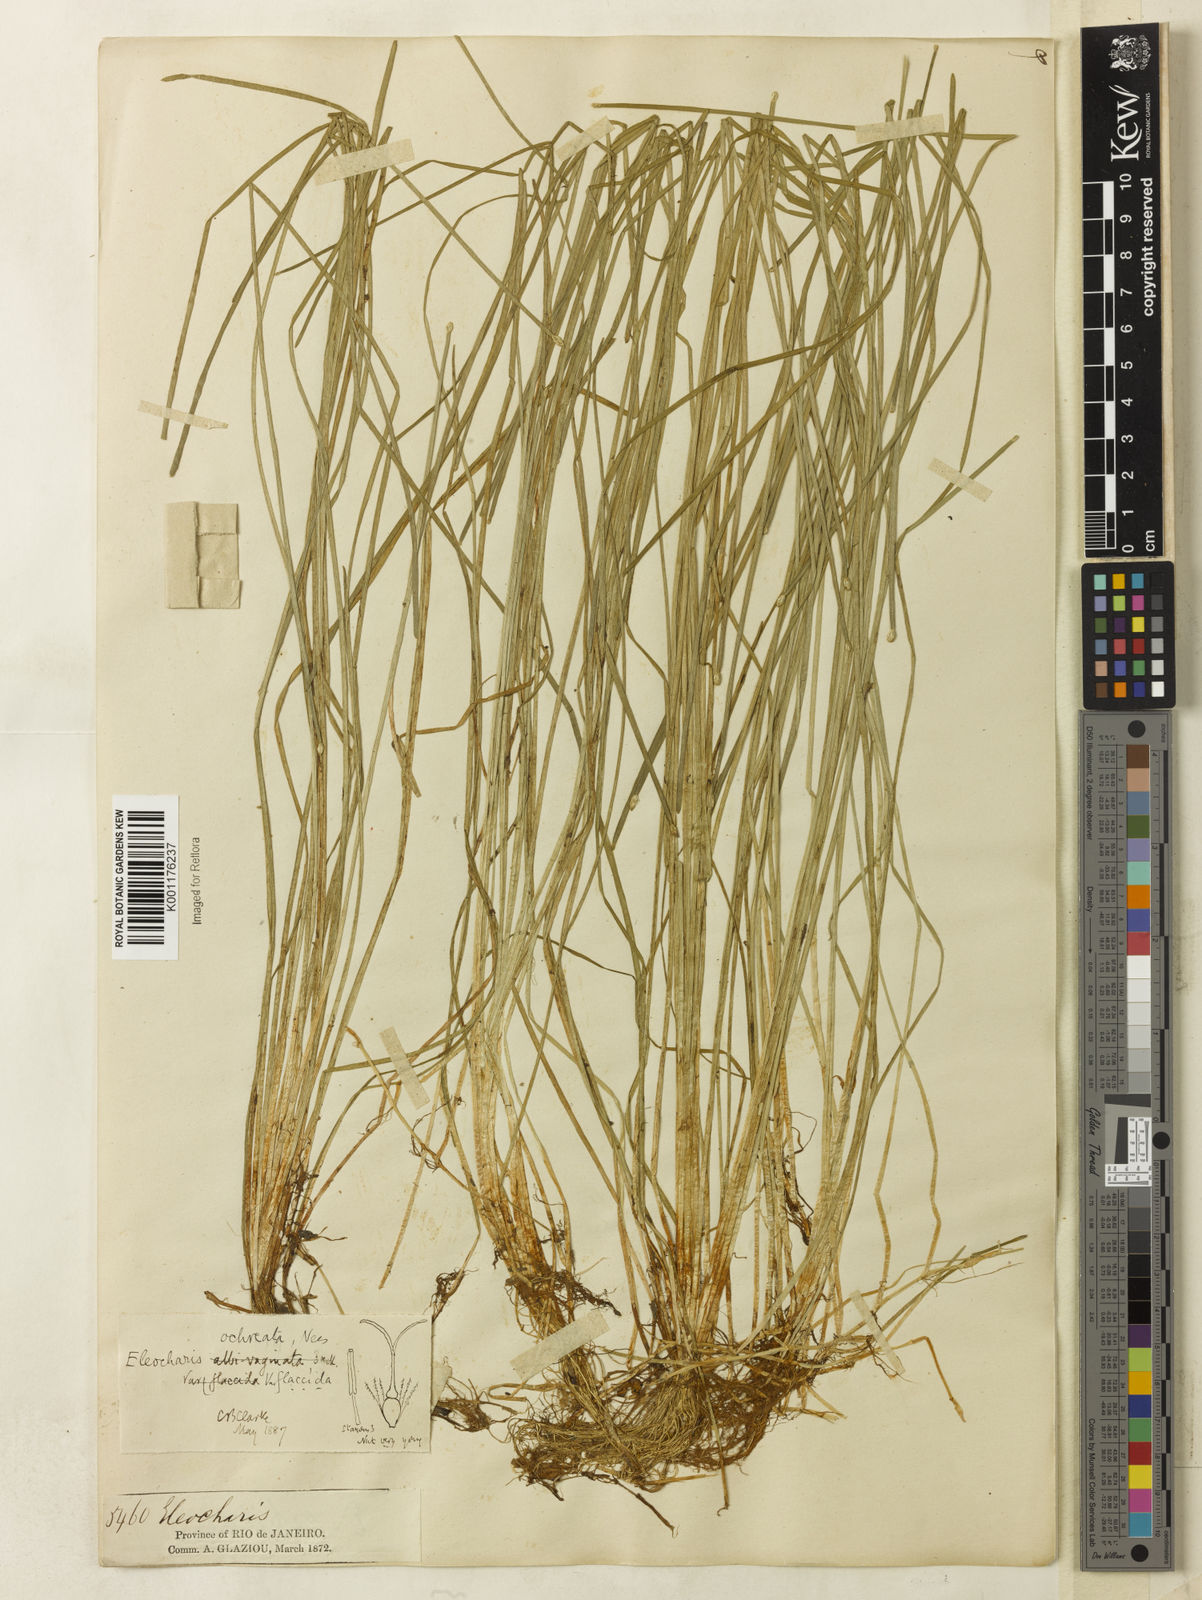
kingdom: Plantae
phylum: Tracheophyta
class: Liliopsida
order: Poales
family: Cyperaceae
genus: Eleocharis
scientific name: Eleocharis flavescens
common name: Yellow spikerush
